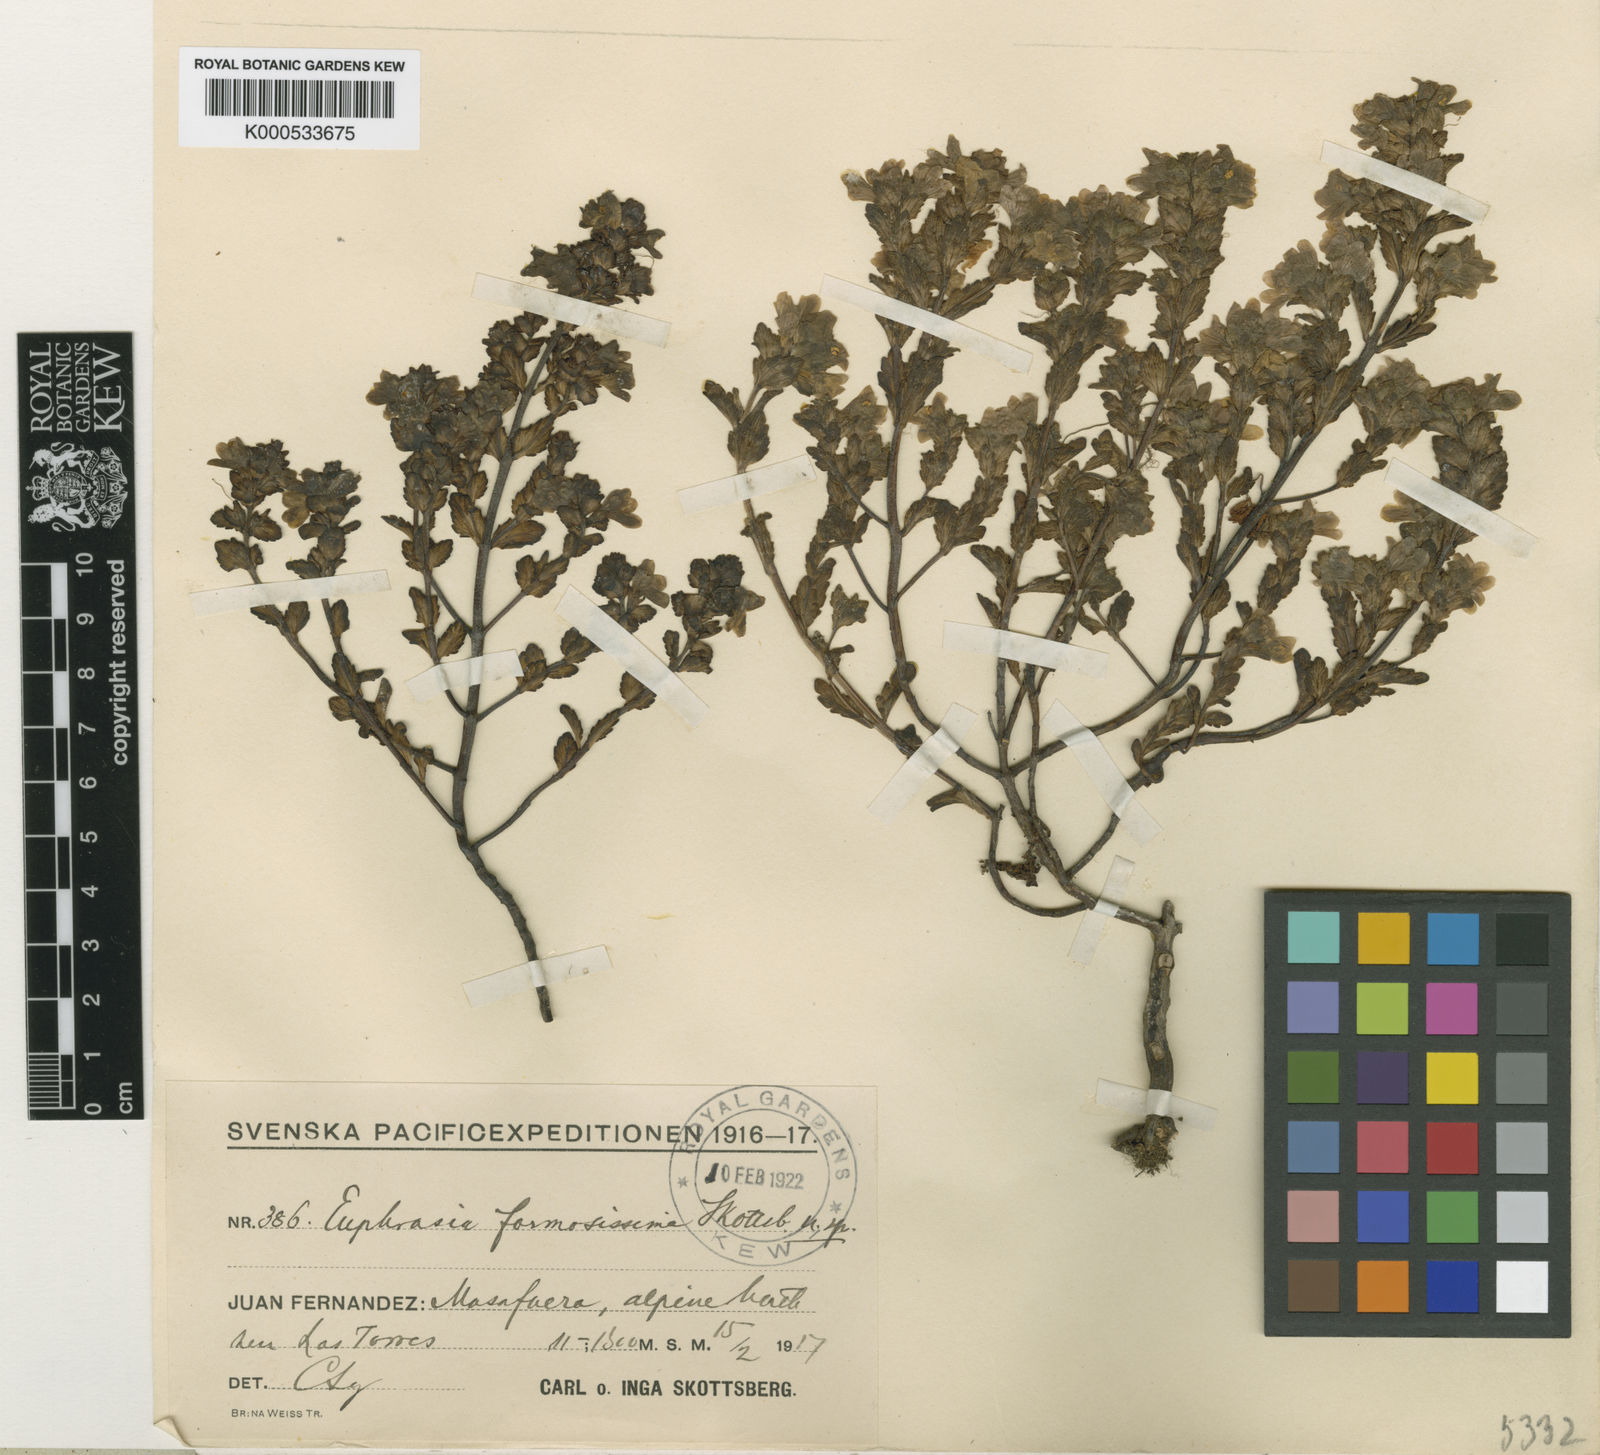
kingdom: Plantae
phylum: Tracheophyta
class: Magnoliopsida
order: Lamiales
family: Orobanchaceae
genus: Euphrasia
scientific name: Euphrasia formosissima
